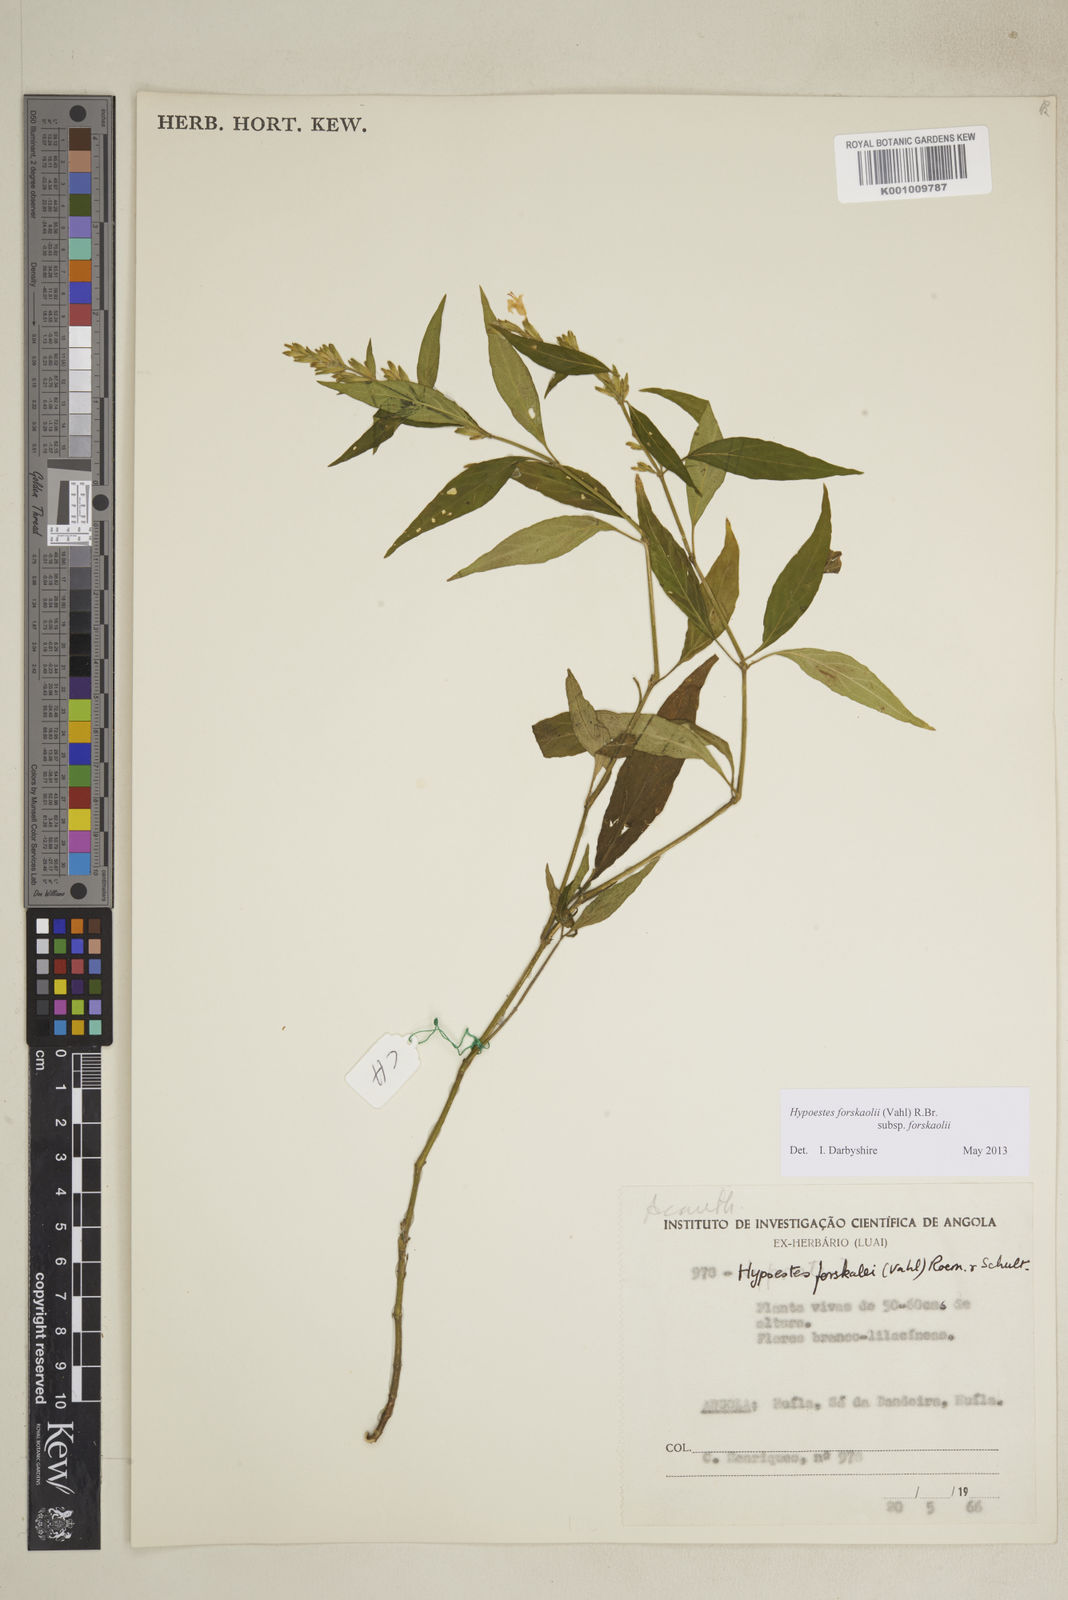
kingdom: Plantae
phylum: Tracheophyta
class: Magnoliopsida
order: Lamiales
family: Acanthaceae
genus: Hypoestes
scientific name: Hypoestes forskaolii
